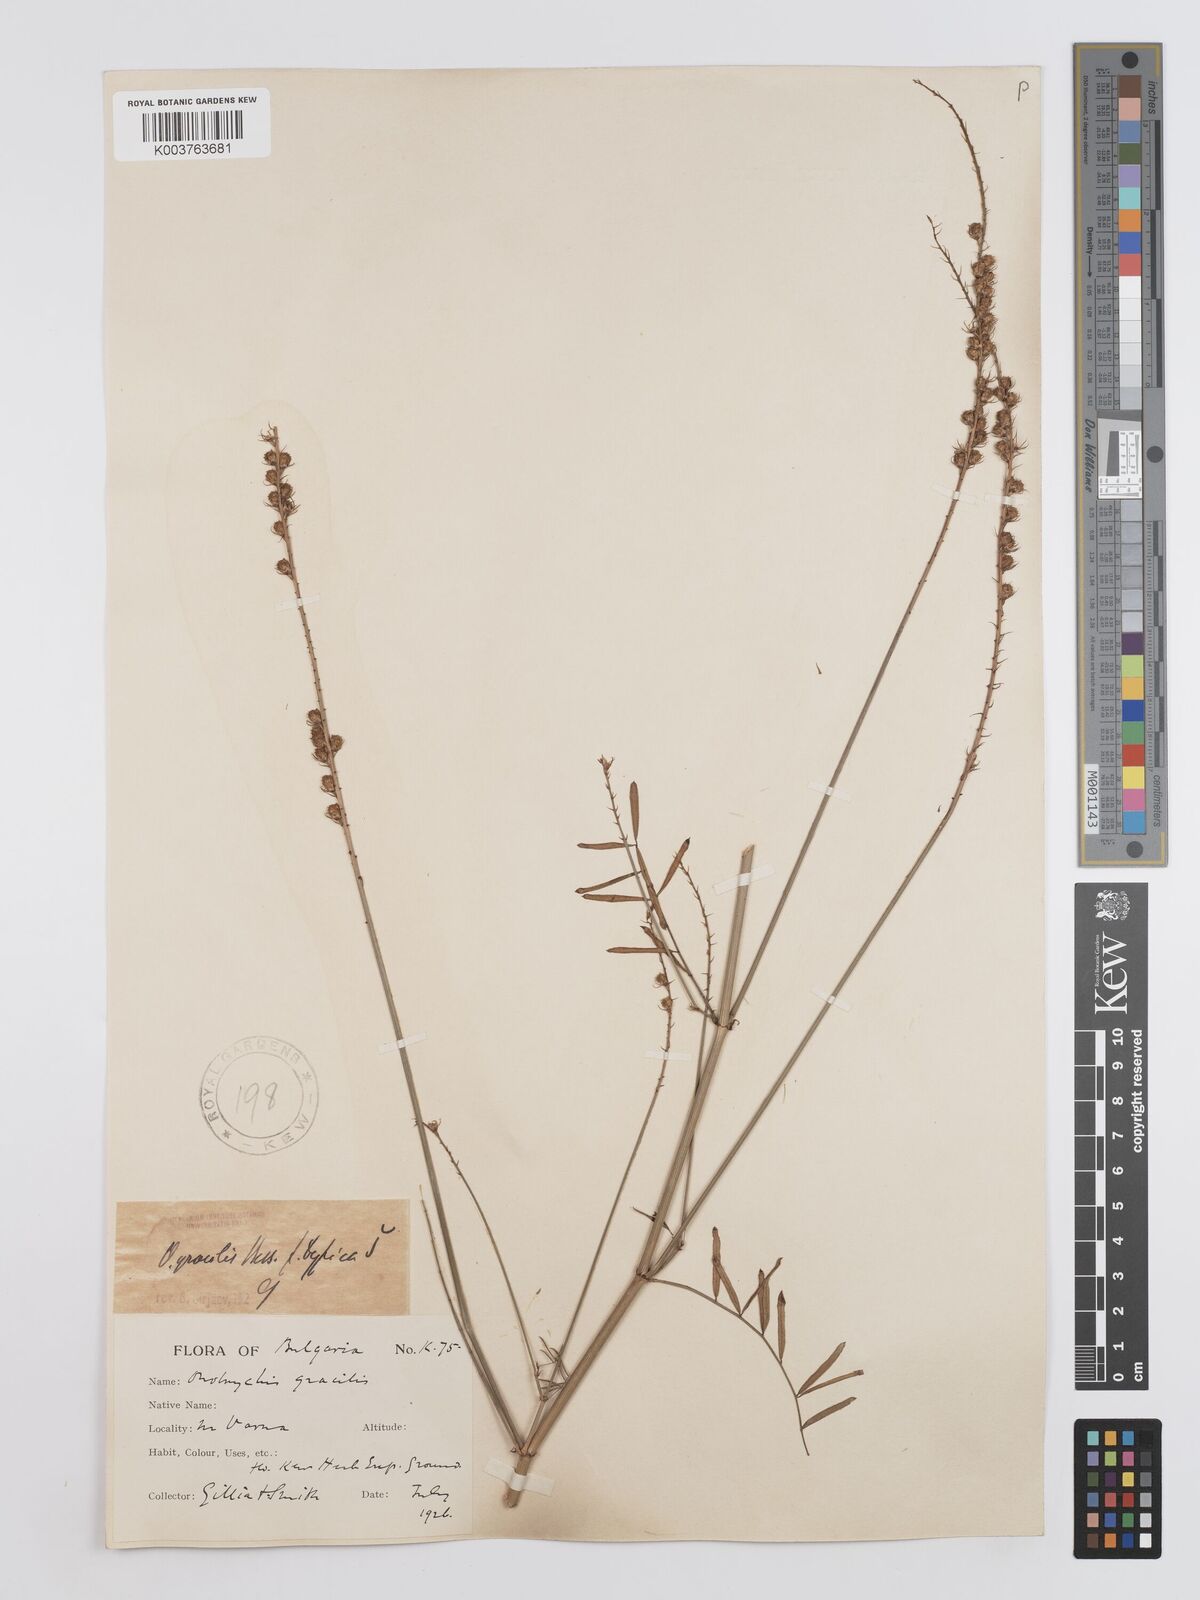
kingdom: Plantae
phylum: Tracheophyta
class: Magnoliopsida
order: Fabales
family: Fabaceae
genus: Onobrychis
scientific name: Onobrychis gracilis
